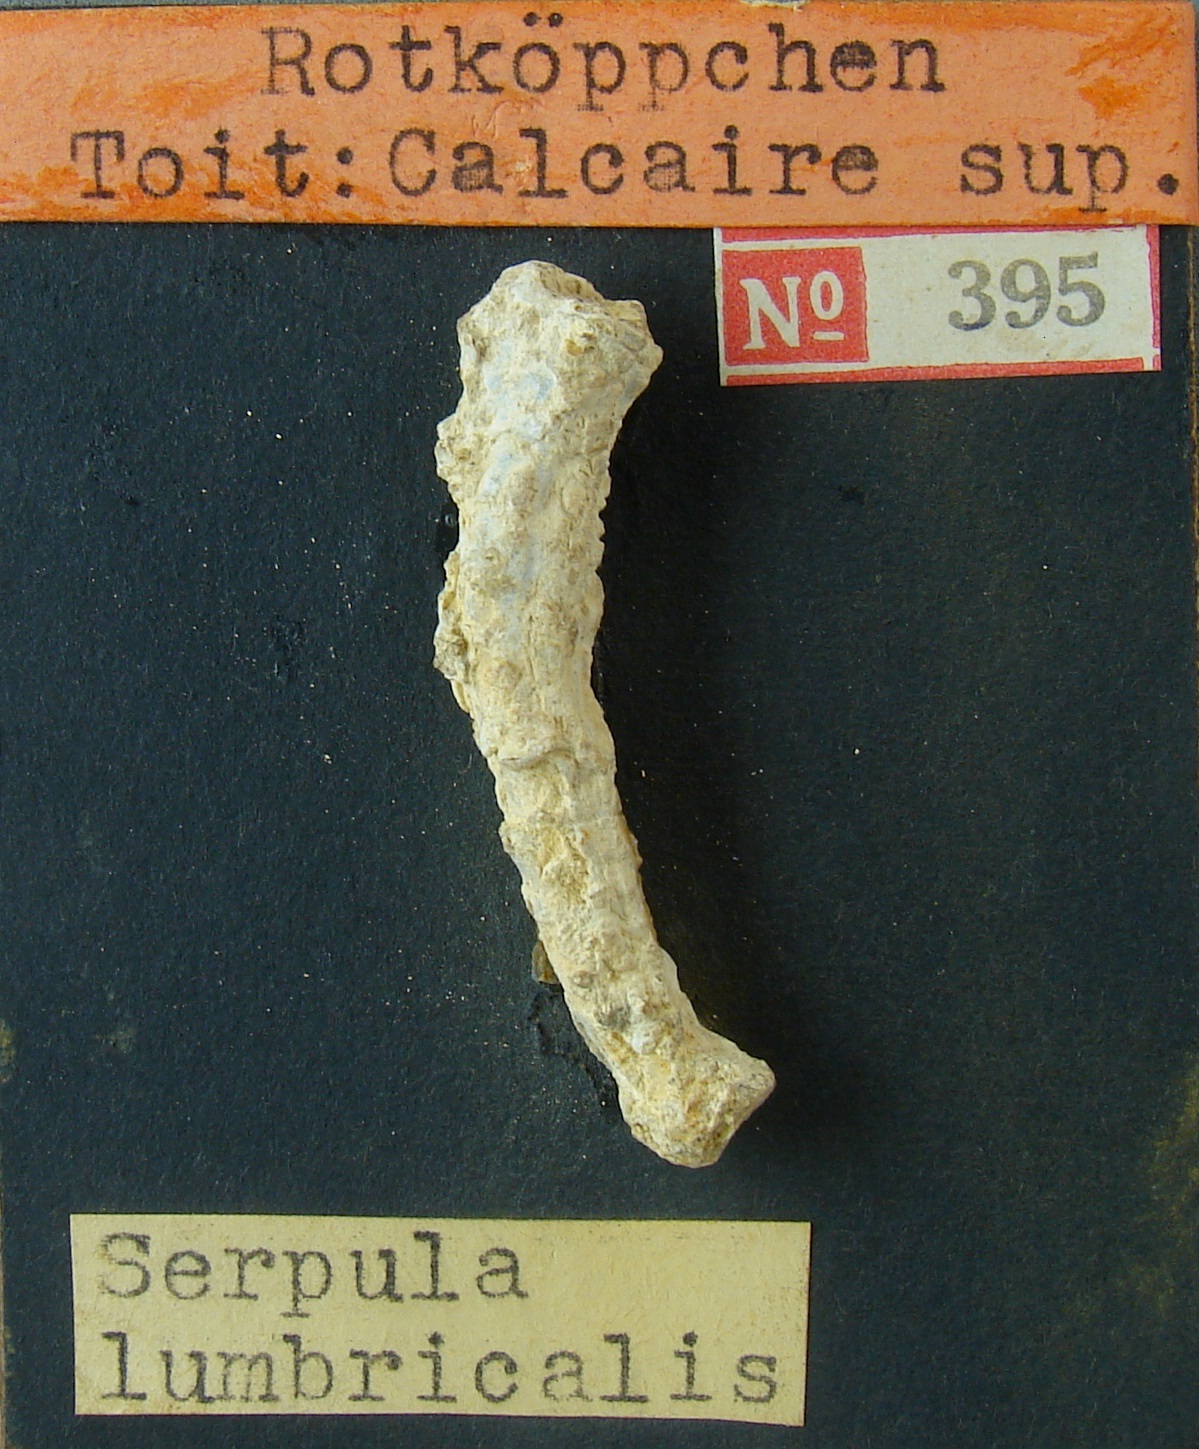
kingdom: Animalia
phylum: Mollusca
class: Gastropoda
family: Turritellidae
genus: Vermicularia
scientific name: Vermicularia lumbricalis
